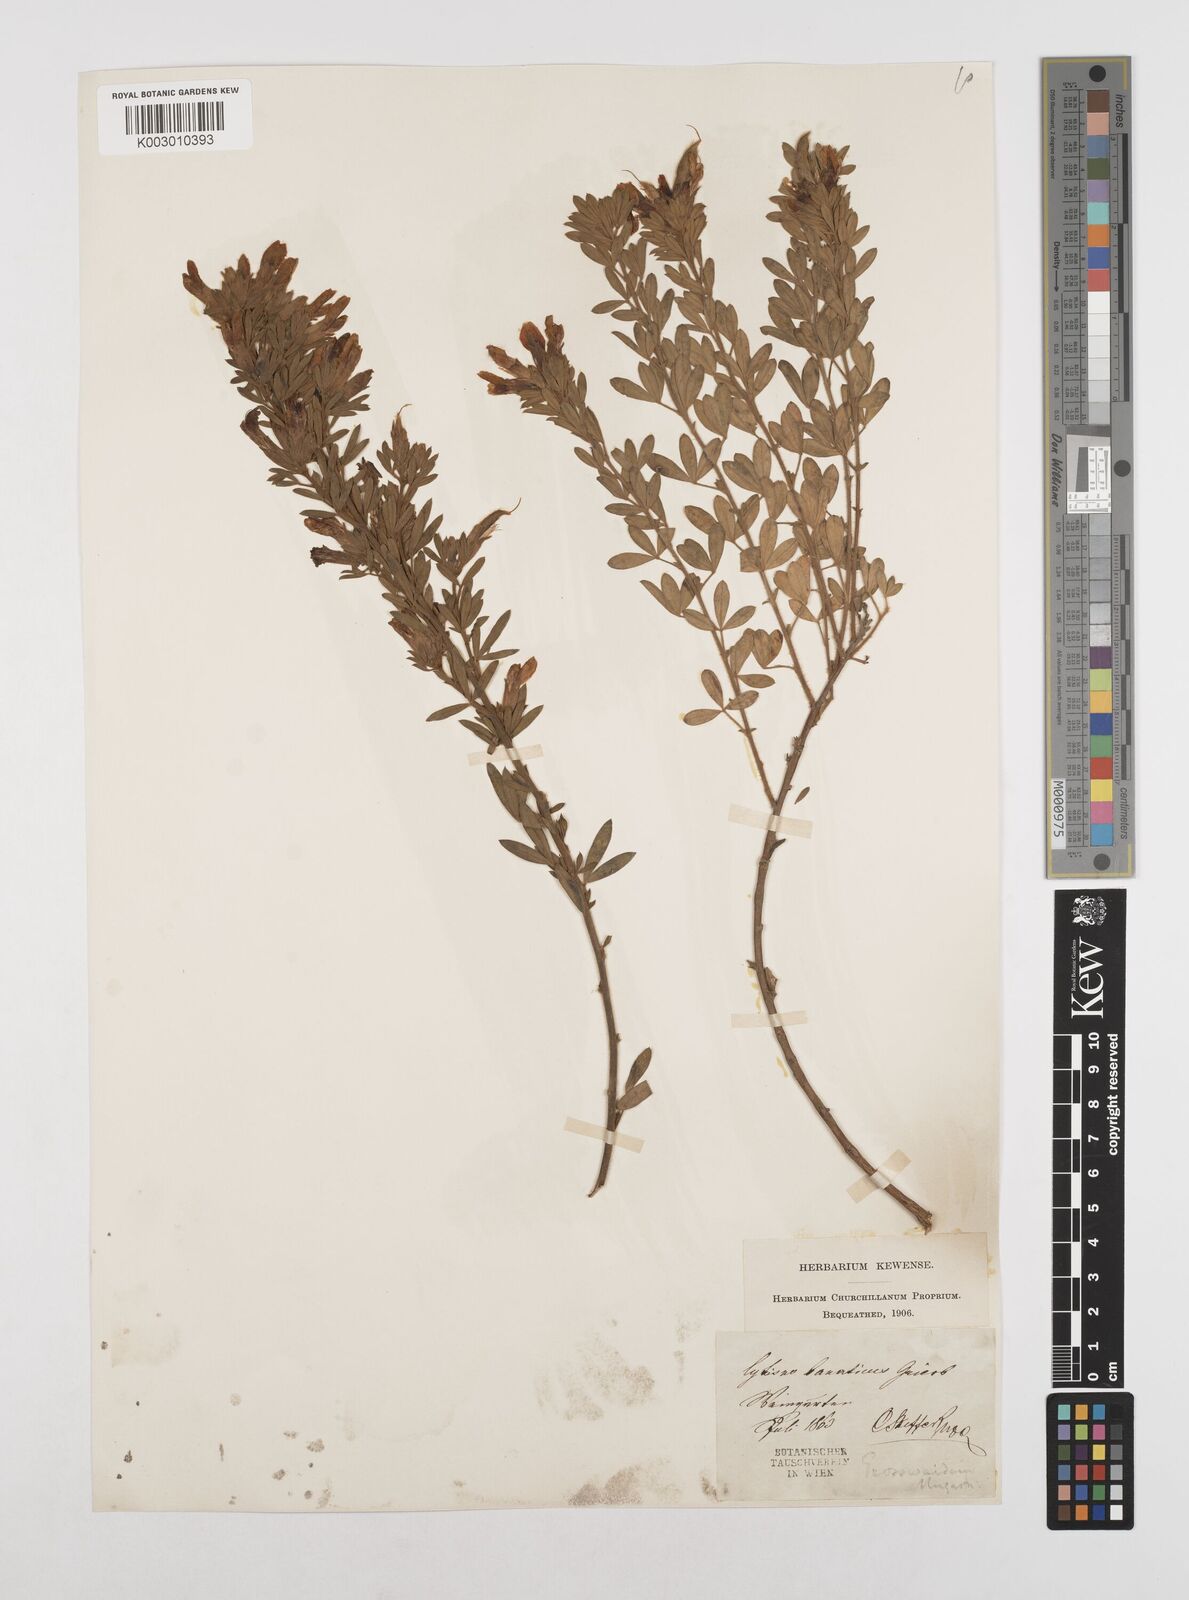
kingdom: Plantae
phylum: Tracheophyta
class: Magnoliopsida
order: Fabales
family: Fabaceae
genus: Chamaecytisus
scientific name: Chamaecytisus rochelii
